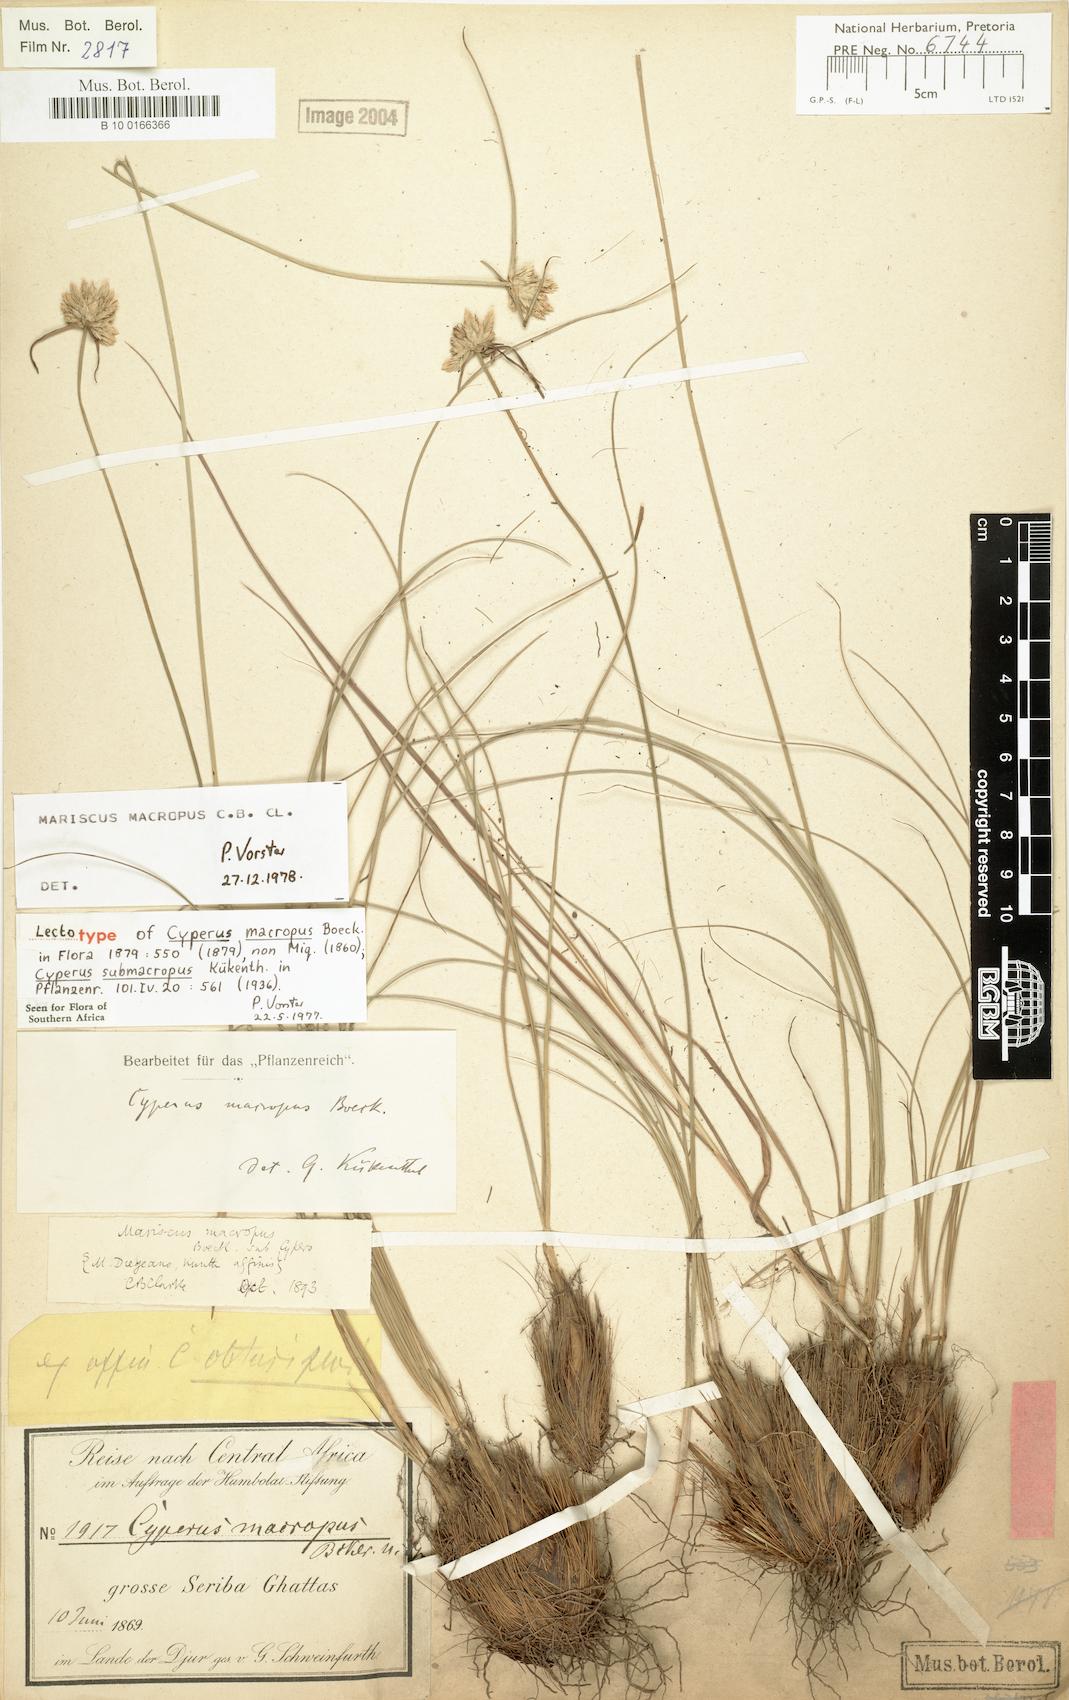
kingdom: Plantae
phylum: Tracheophyta
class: Liliopsida
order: Poales
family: Cyperaceae
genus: Cyperus
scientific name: Cyperus mollipes
